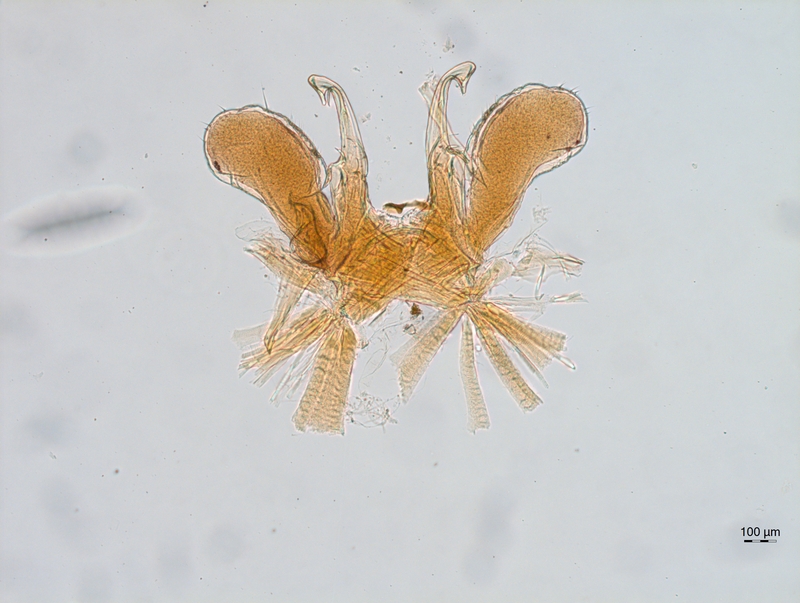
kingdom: Animalia
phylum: Arthropoda
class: Diplopoda
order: Chordeumatida
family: Chordeumatidae
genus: Chordeuma
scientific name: Chordeuma muticum
